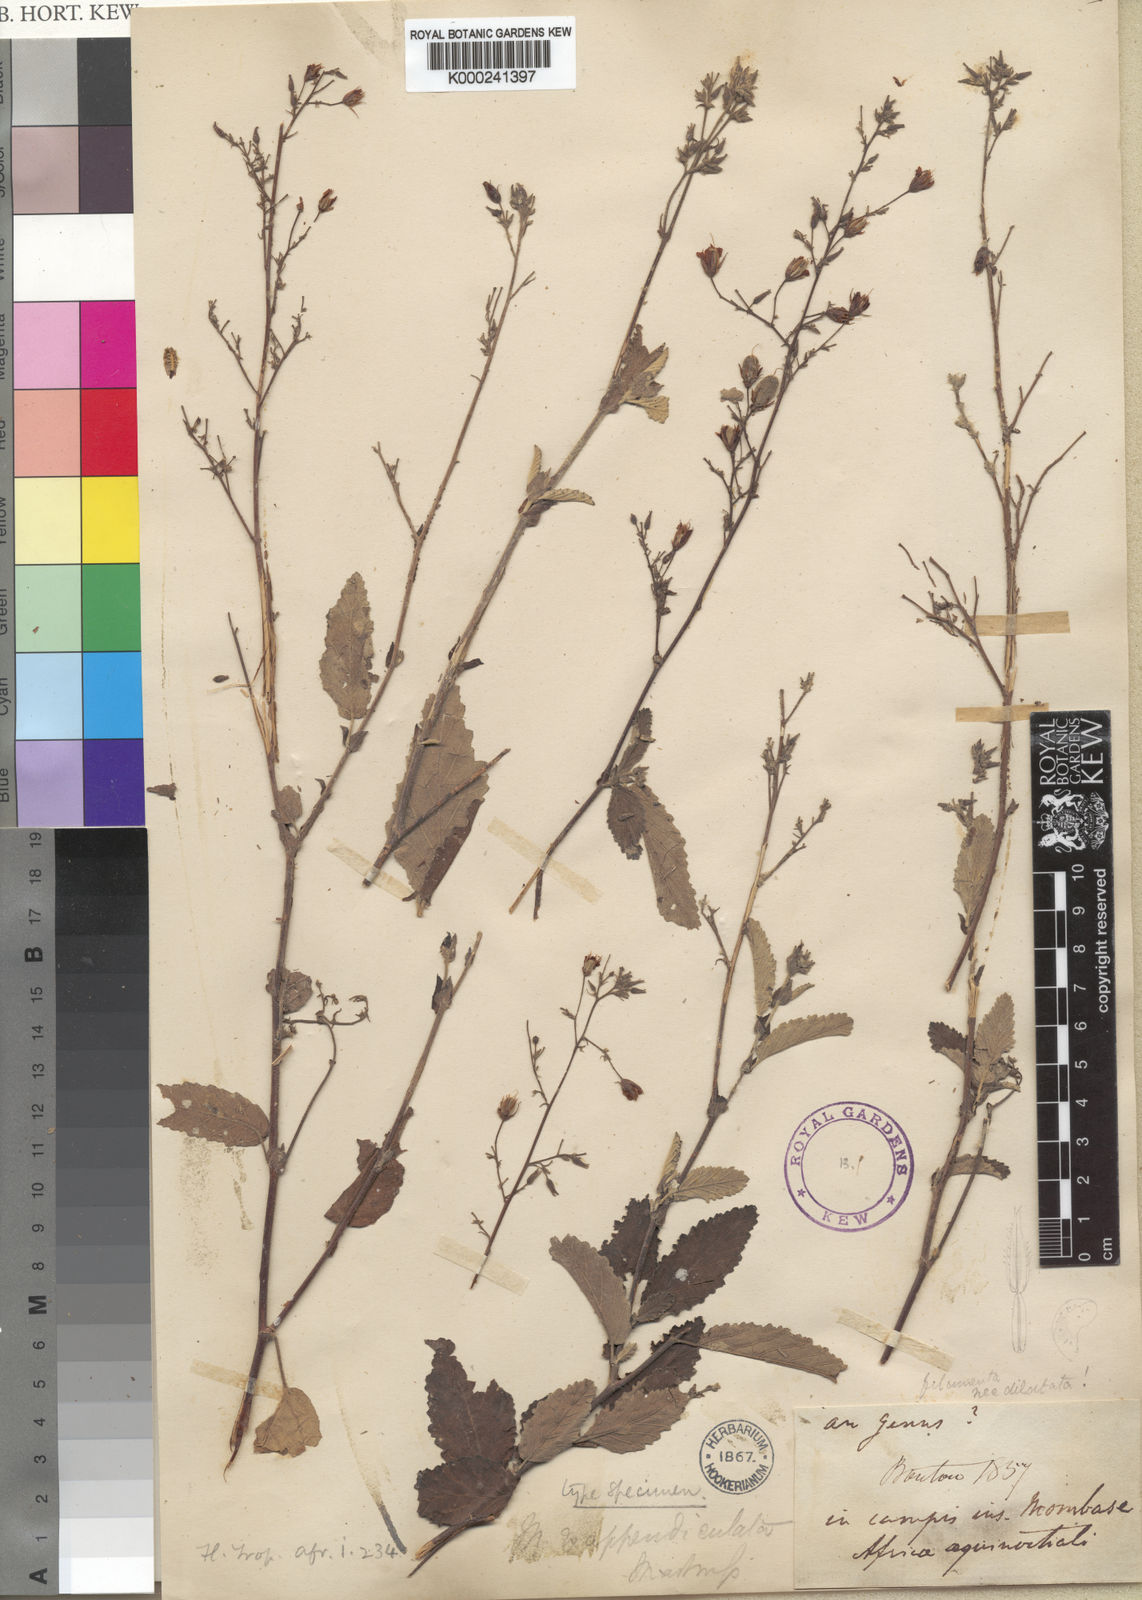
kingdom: Plantae
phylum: Tracheophyta
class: Magnoliopsida
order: Malvales
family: Malvaceae
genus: Hermannia
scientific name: Hermannia
